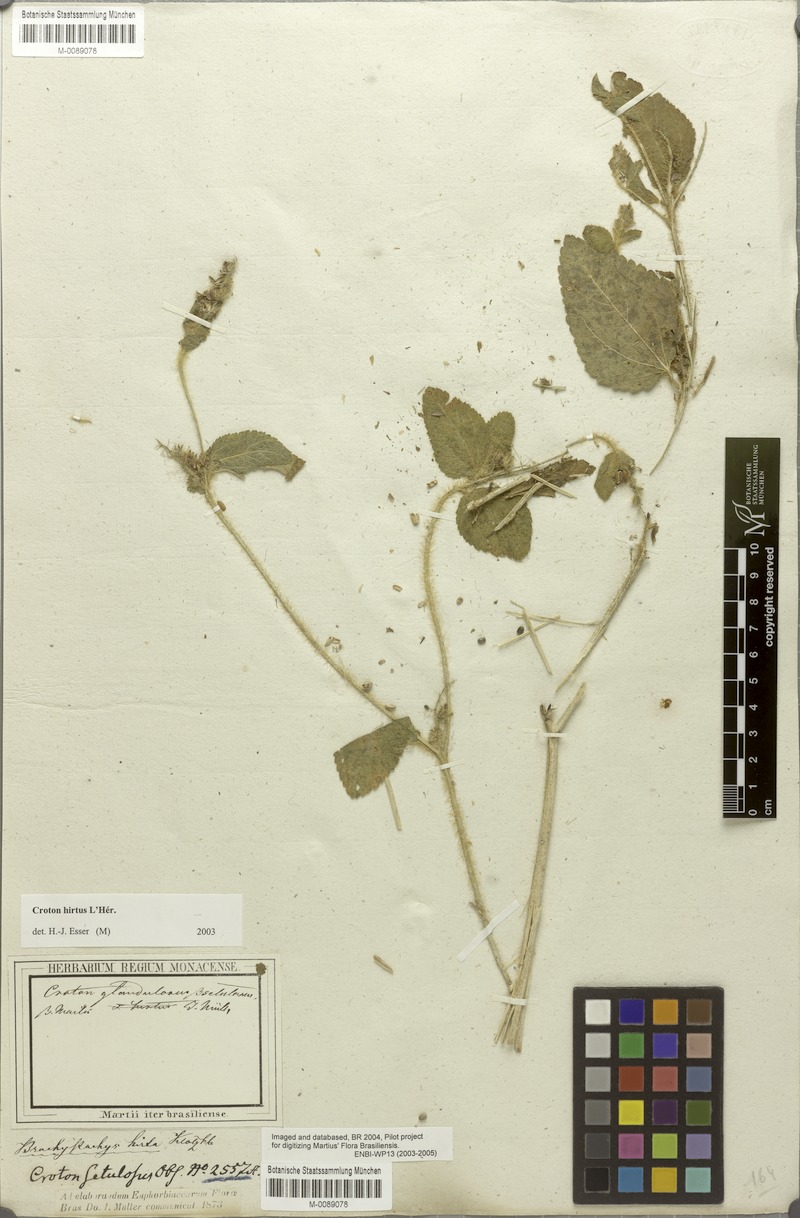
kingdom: Plantae
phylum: Tracheophyta
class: Magnoliopsida
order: Malpighiales
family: Euphorbiaceae
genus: Croton
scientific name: Croton hirtus
